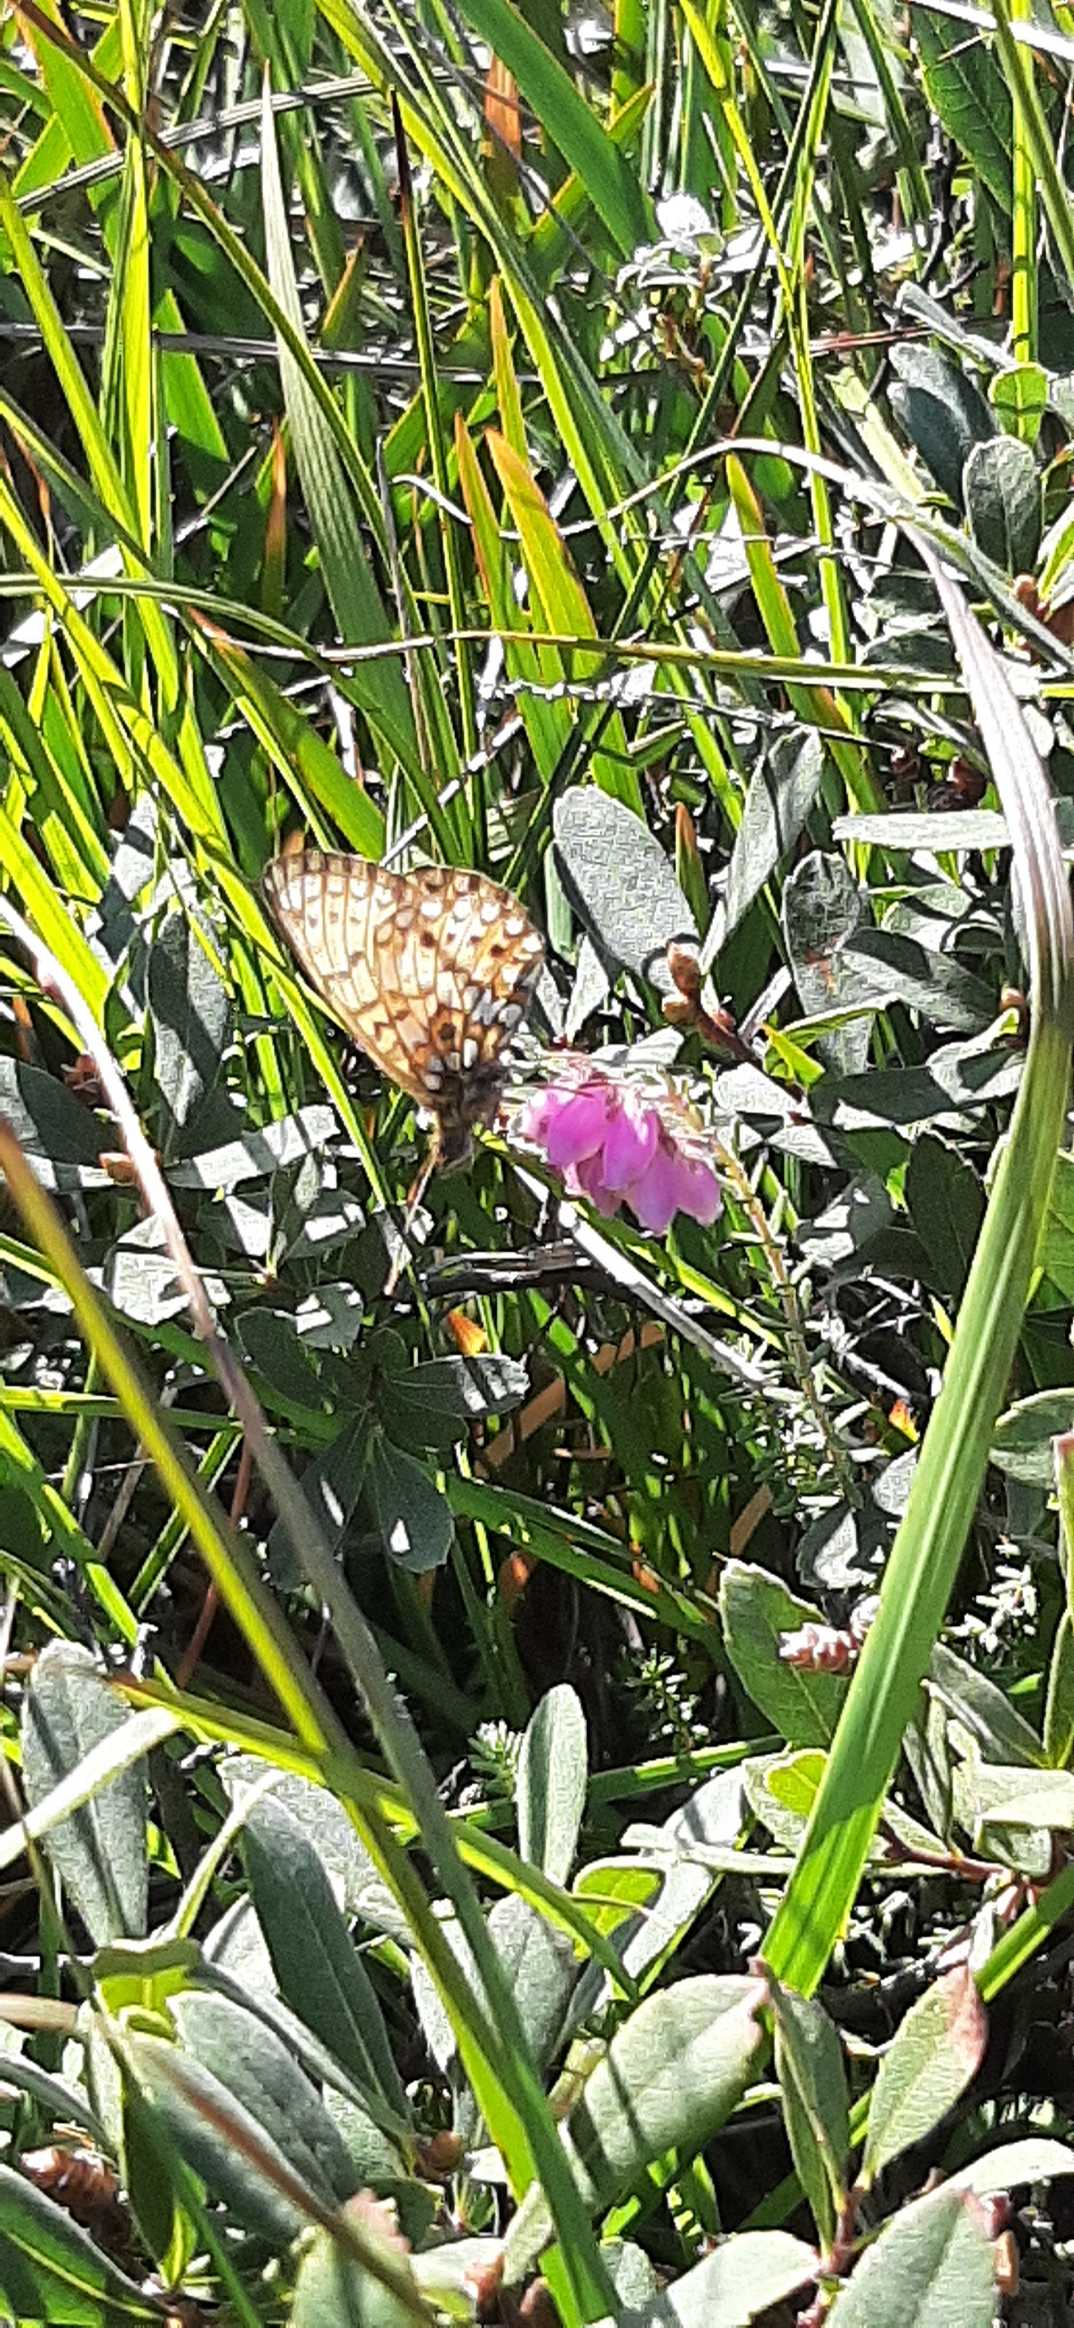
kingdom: Animalia
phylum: Arthropoda
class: Insecta
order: Lepidoptera
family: Nymphalidae
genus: Boloria
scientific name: Boloria selene
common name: Brunlig perlemorsommerfugl
